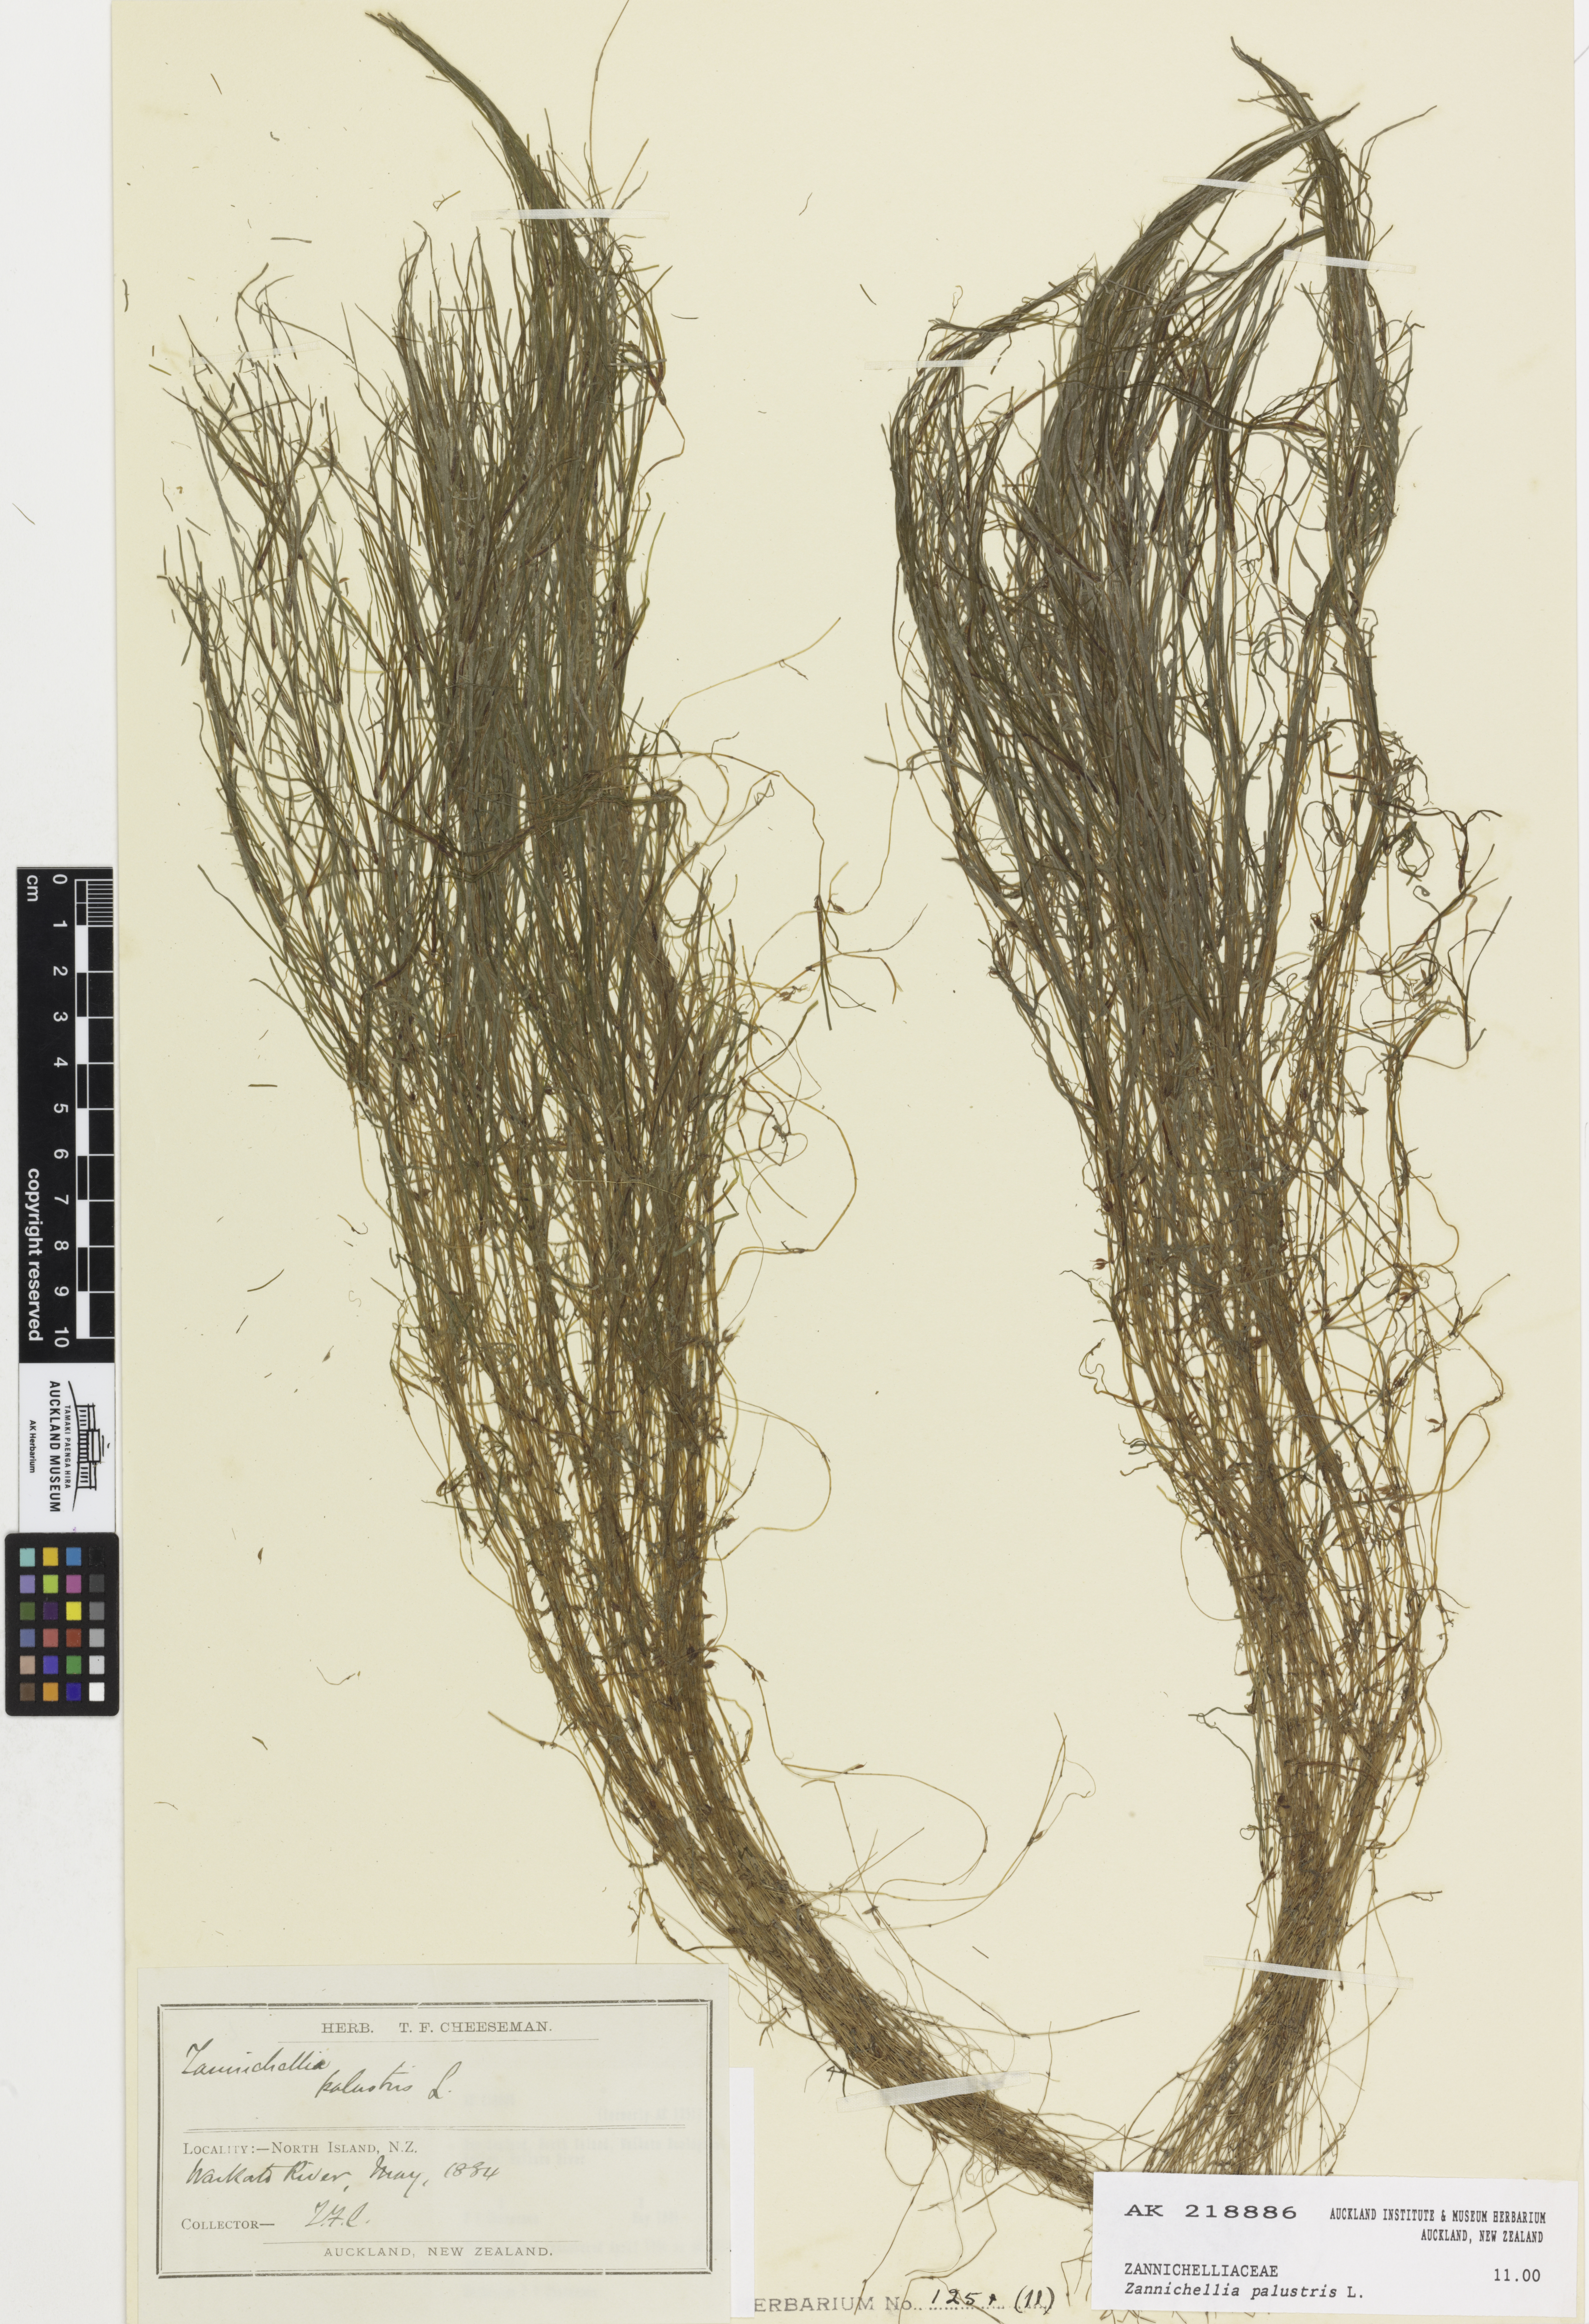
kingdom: Plantae
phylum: Tracheophyta
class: Liliopsida
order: Alismatales
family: Potamogetonaceae
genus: Zannichellia
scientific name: Zannichellia palustris
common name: Horned pondweed
